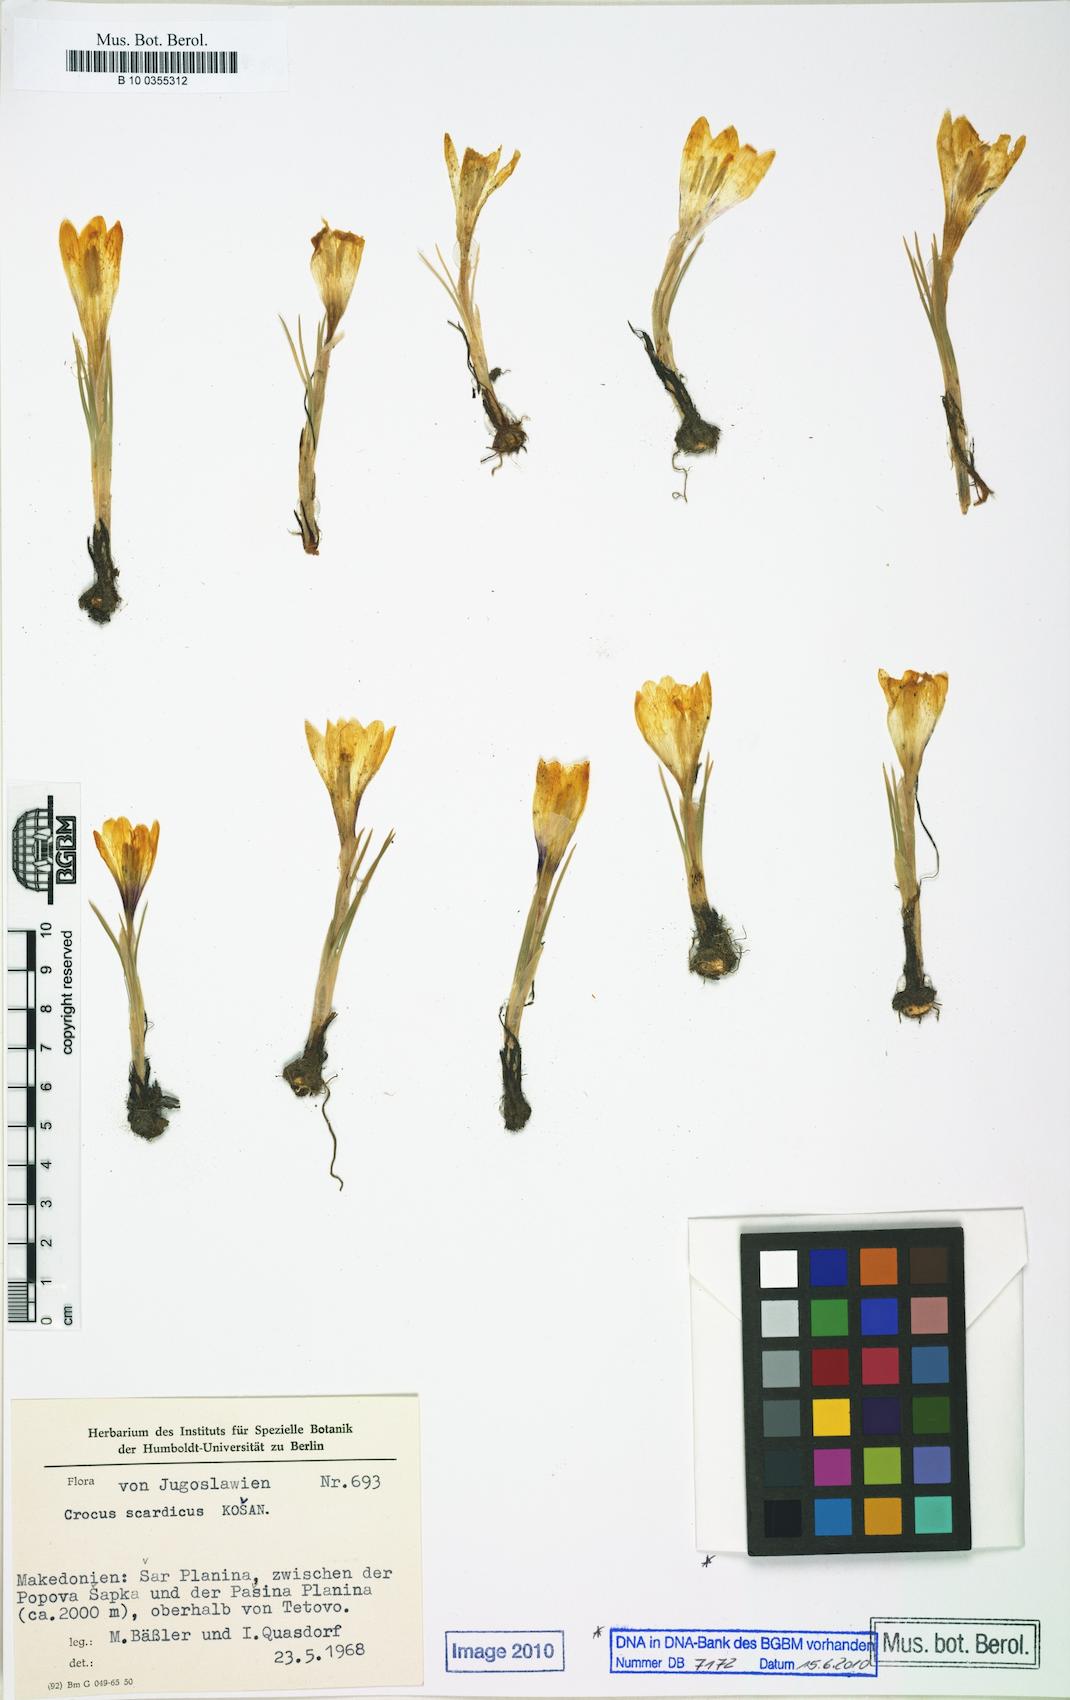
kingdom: Plantae
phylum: Tracheophyta
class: Liliopsida
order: Asparagales
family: Iridaceae
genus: Crocus
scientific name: Crocus scardicus
